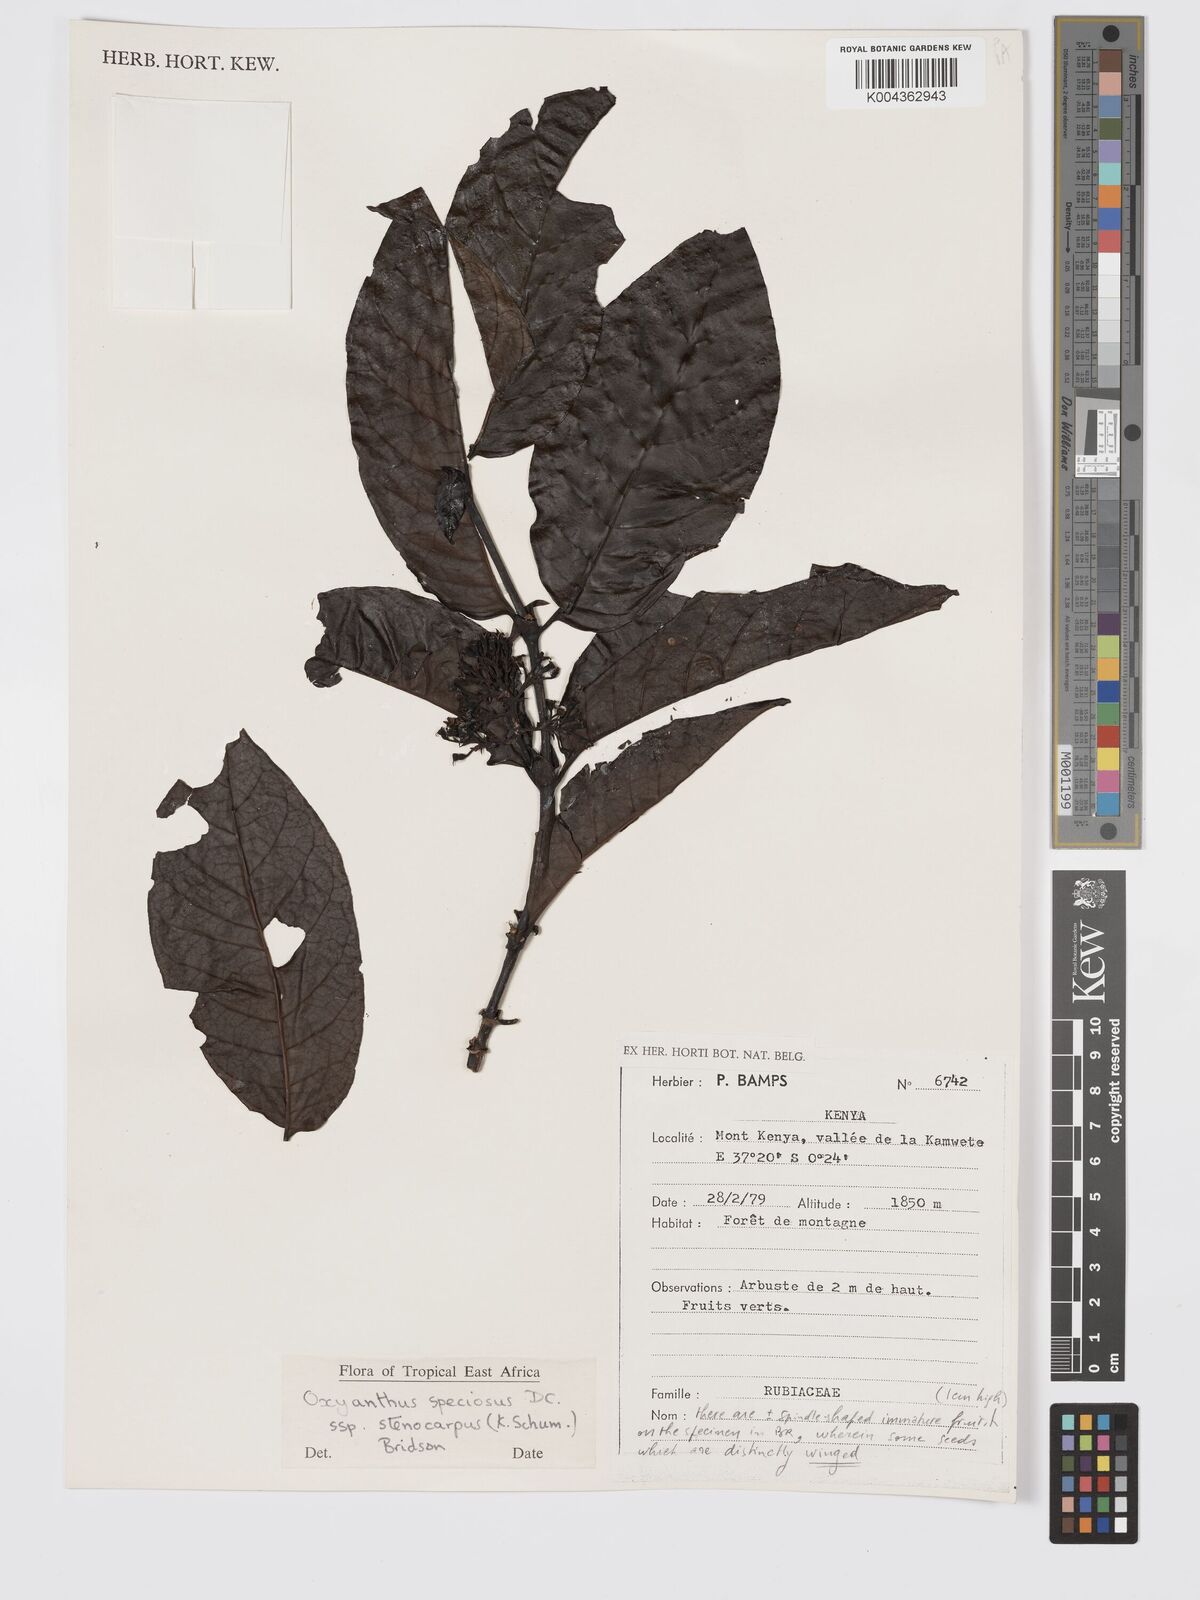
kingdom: Plantae
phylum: Tracheophyta
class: Magnoliopsida
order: Gentianales
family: Rubiaceae
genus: Oxyanthus
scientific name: Oxyanthus speciosus
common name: Whipstick loquat
